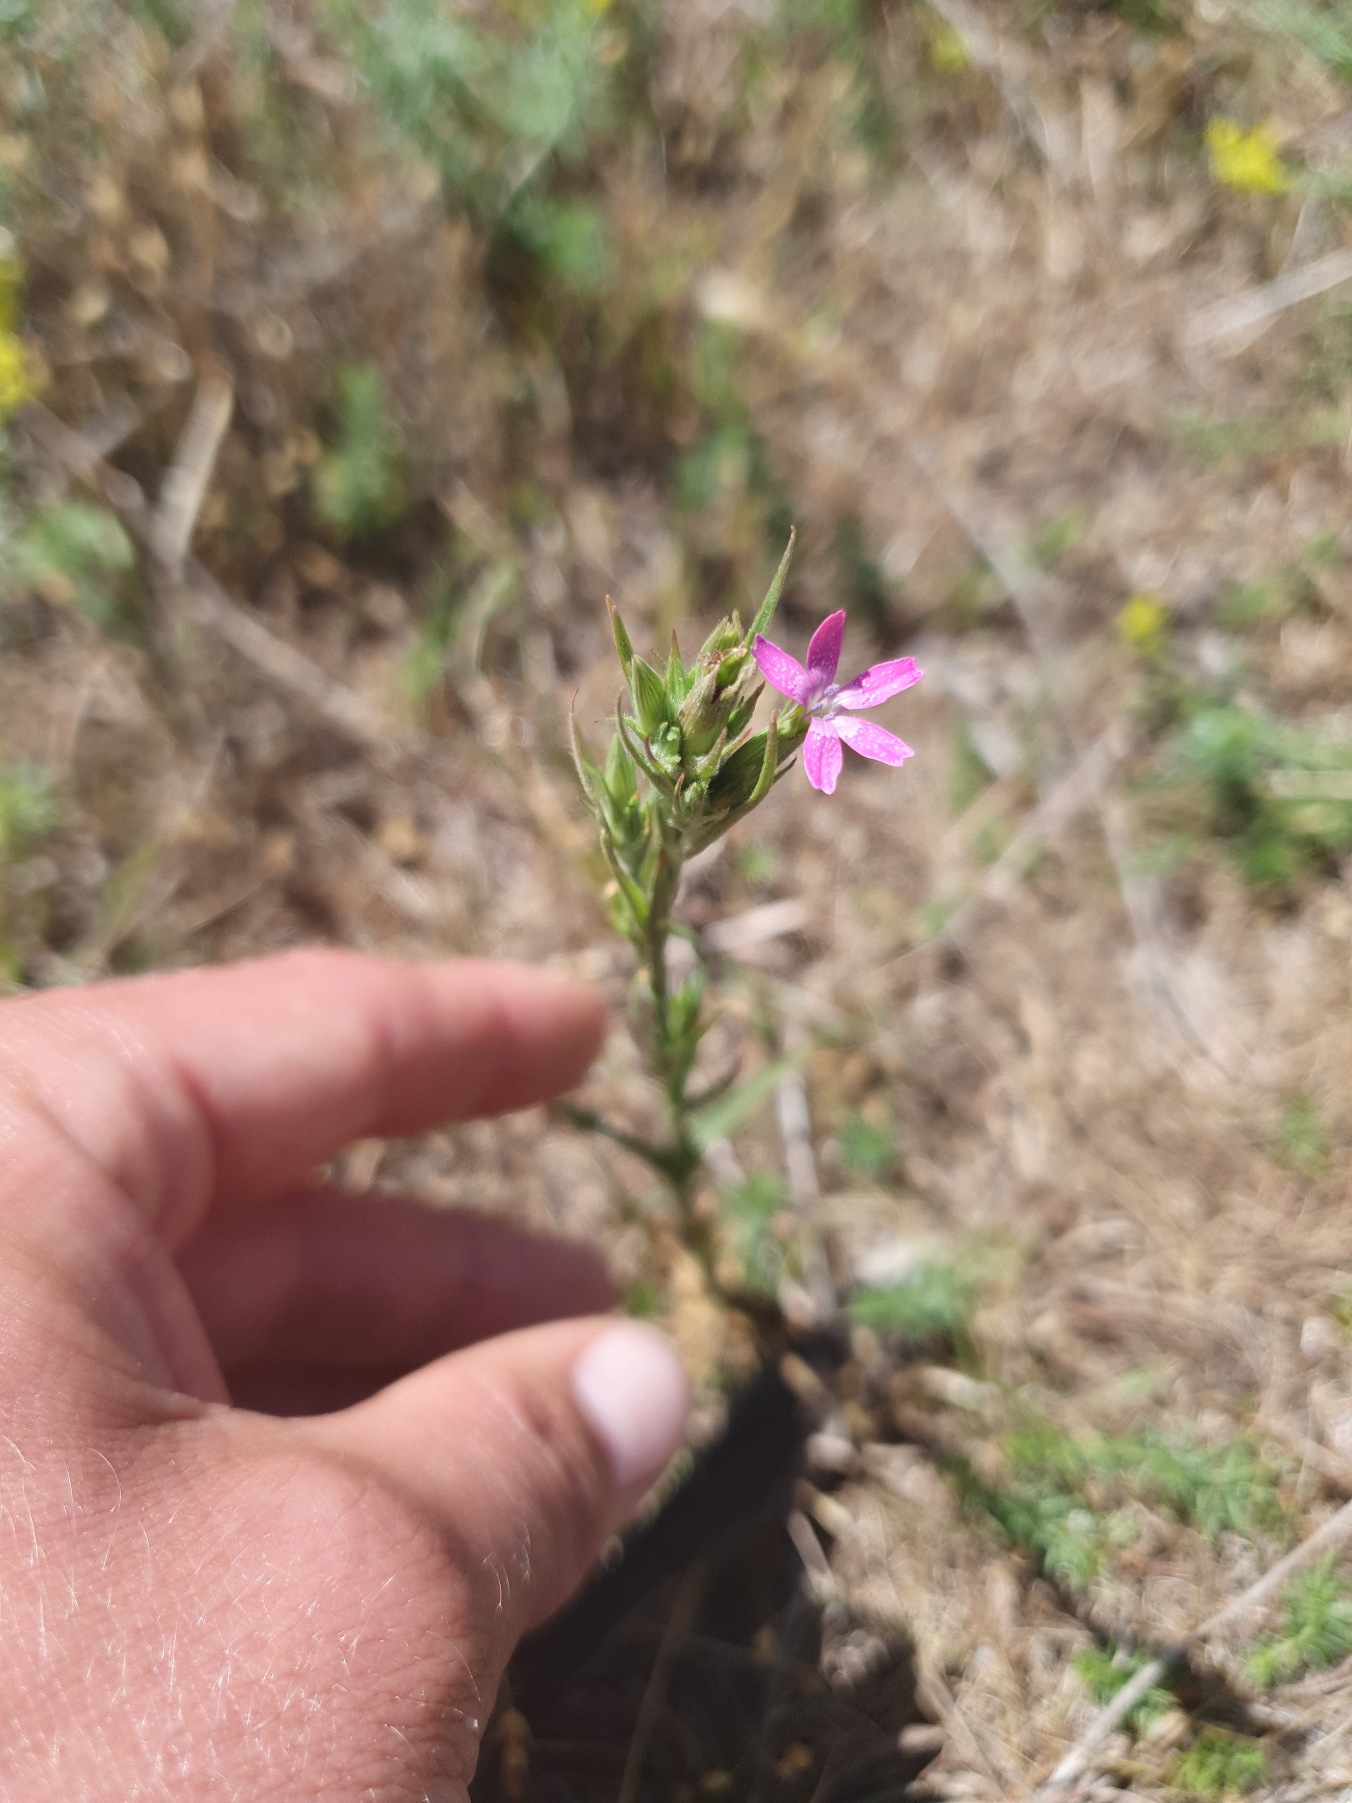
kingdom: Plantae
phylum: Tracheophyta
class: Magnoliopsida
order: Caryophyllales
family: Caryophyllaceae
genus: Dianthus
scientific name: Dianthus armeria
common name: Kost-nellike
